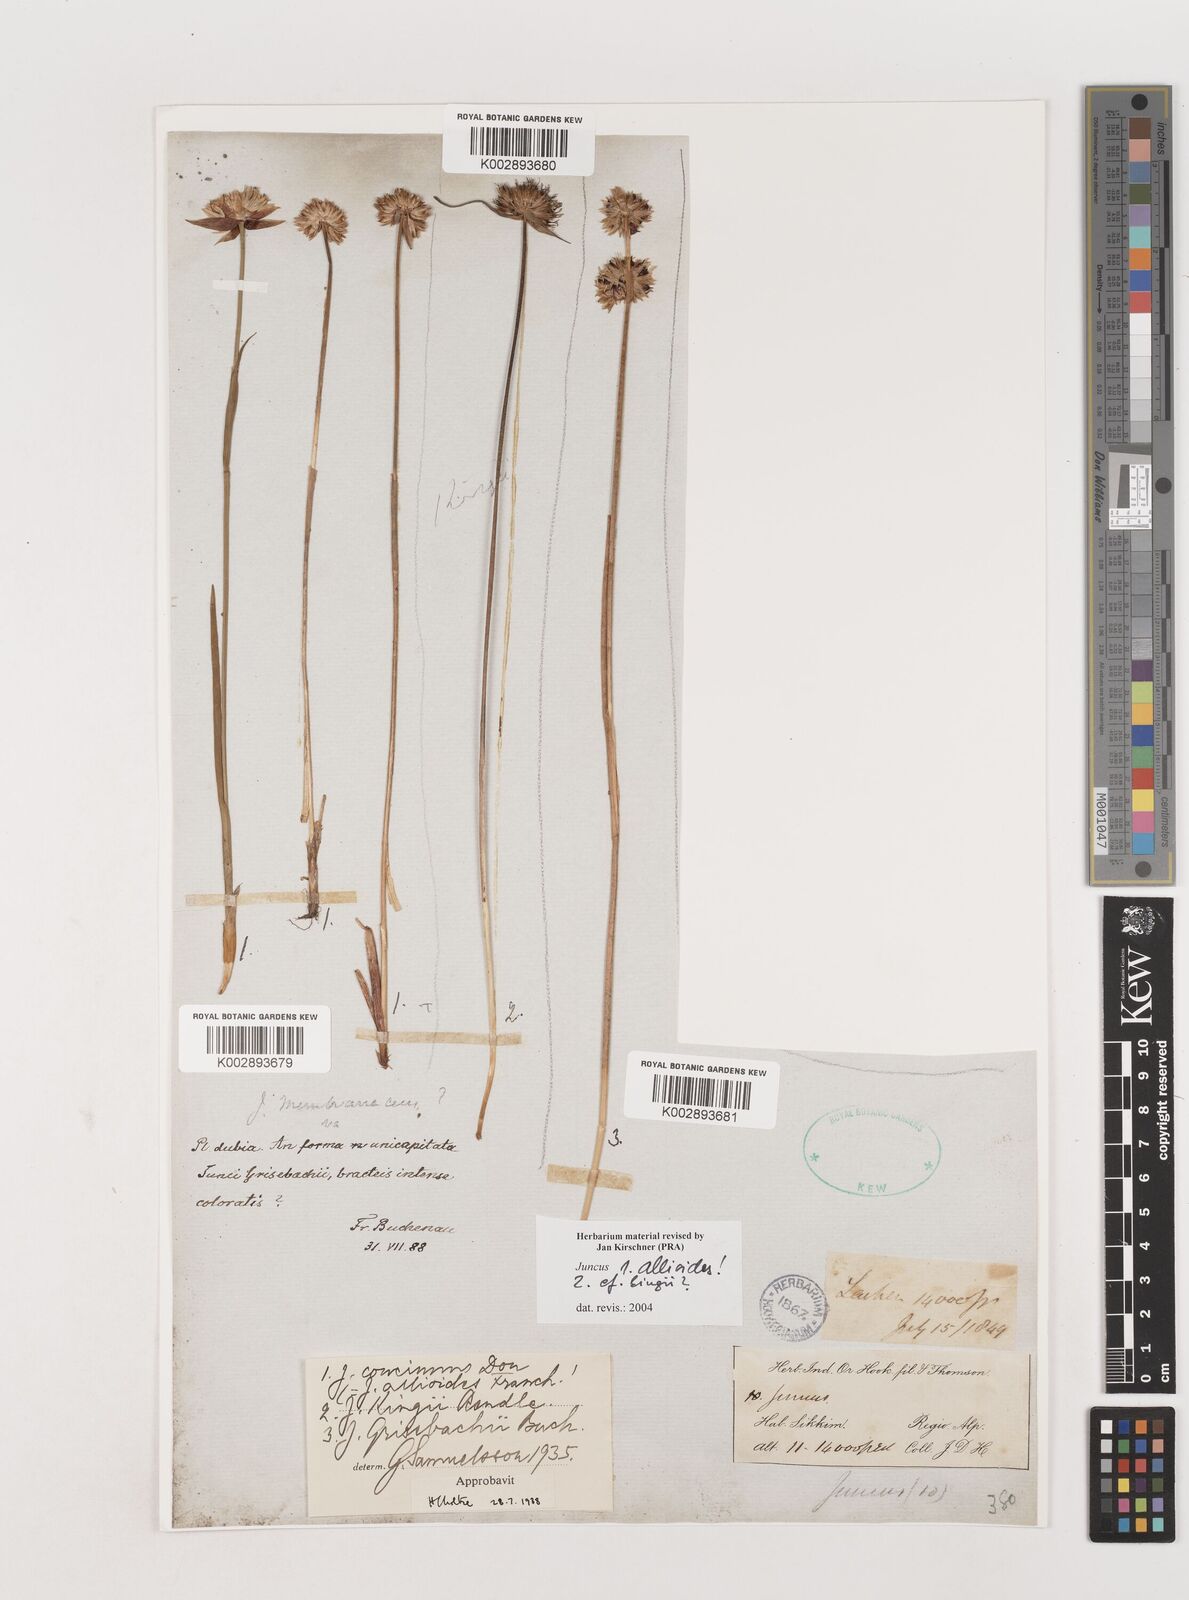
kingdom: Plantae
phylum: Tracheophyta
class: Liliopsida
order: Poales
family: Juncaceae
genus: Juncus
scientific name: Juncus allioides
